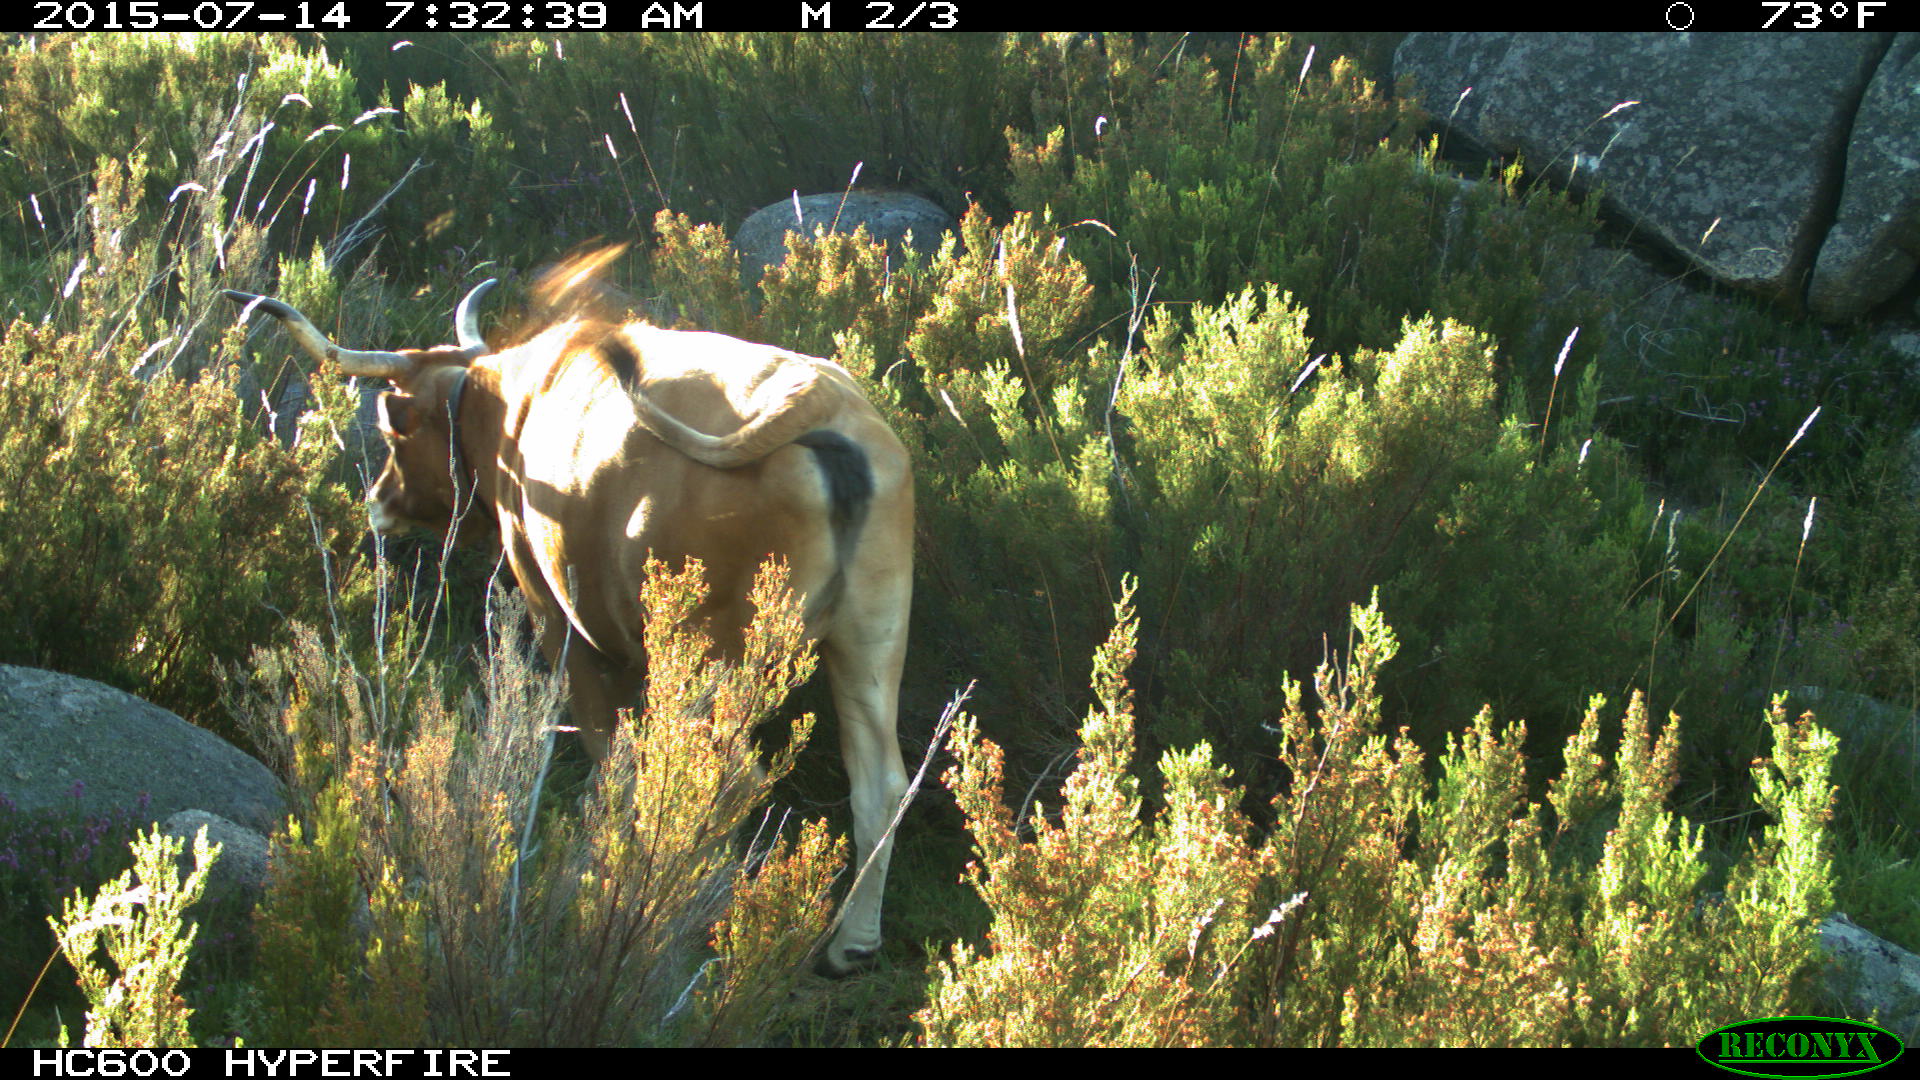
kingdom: Animalia
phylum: Chordata
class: Mammalia
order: Artiodactyla
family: Bovidae
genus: Bos
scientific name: Bos taurus
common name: Domesticated cattle
